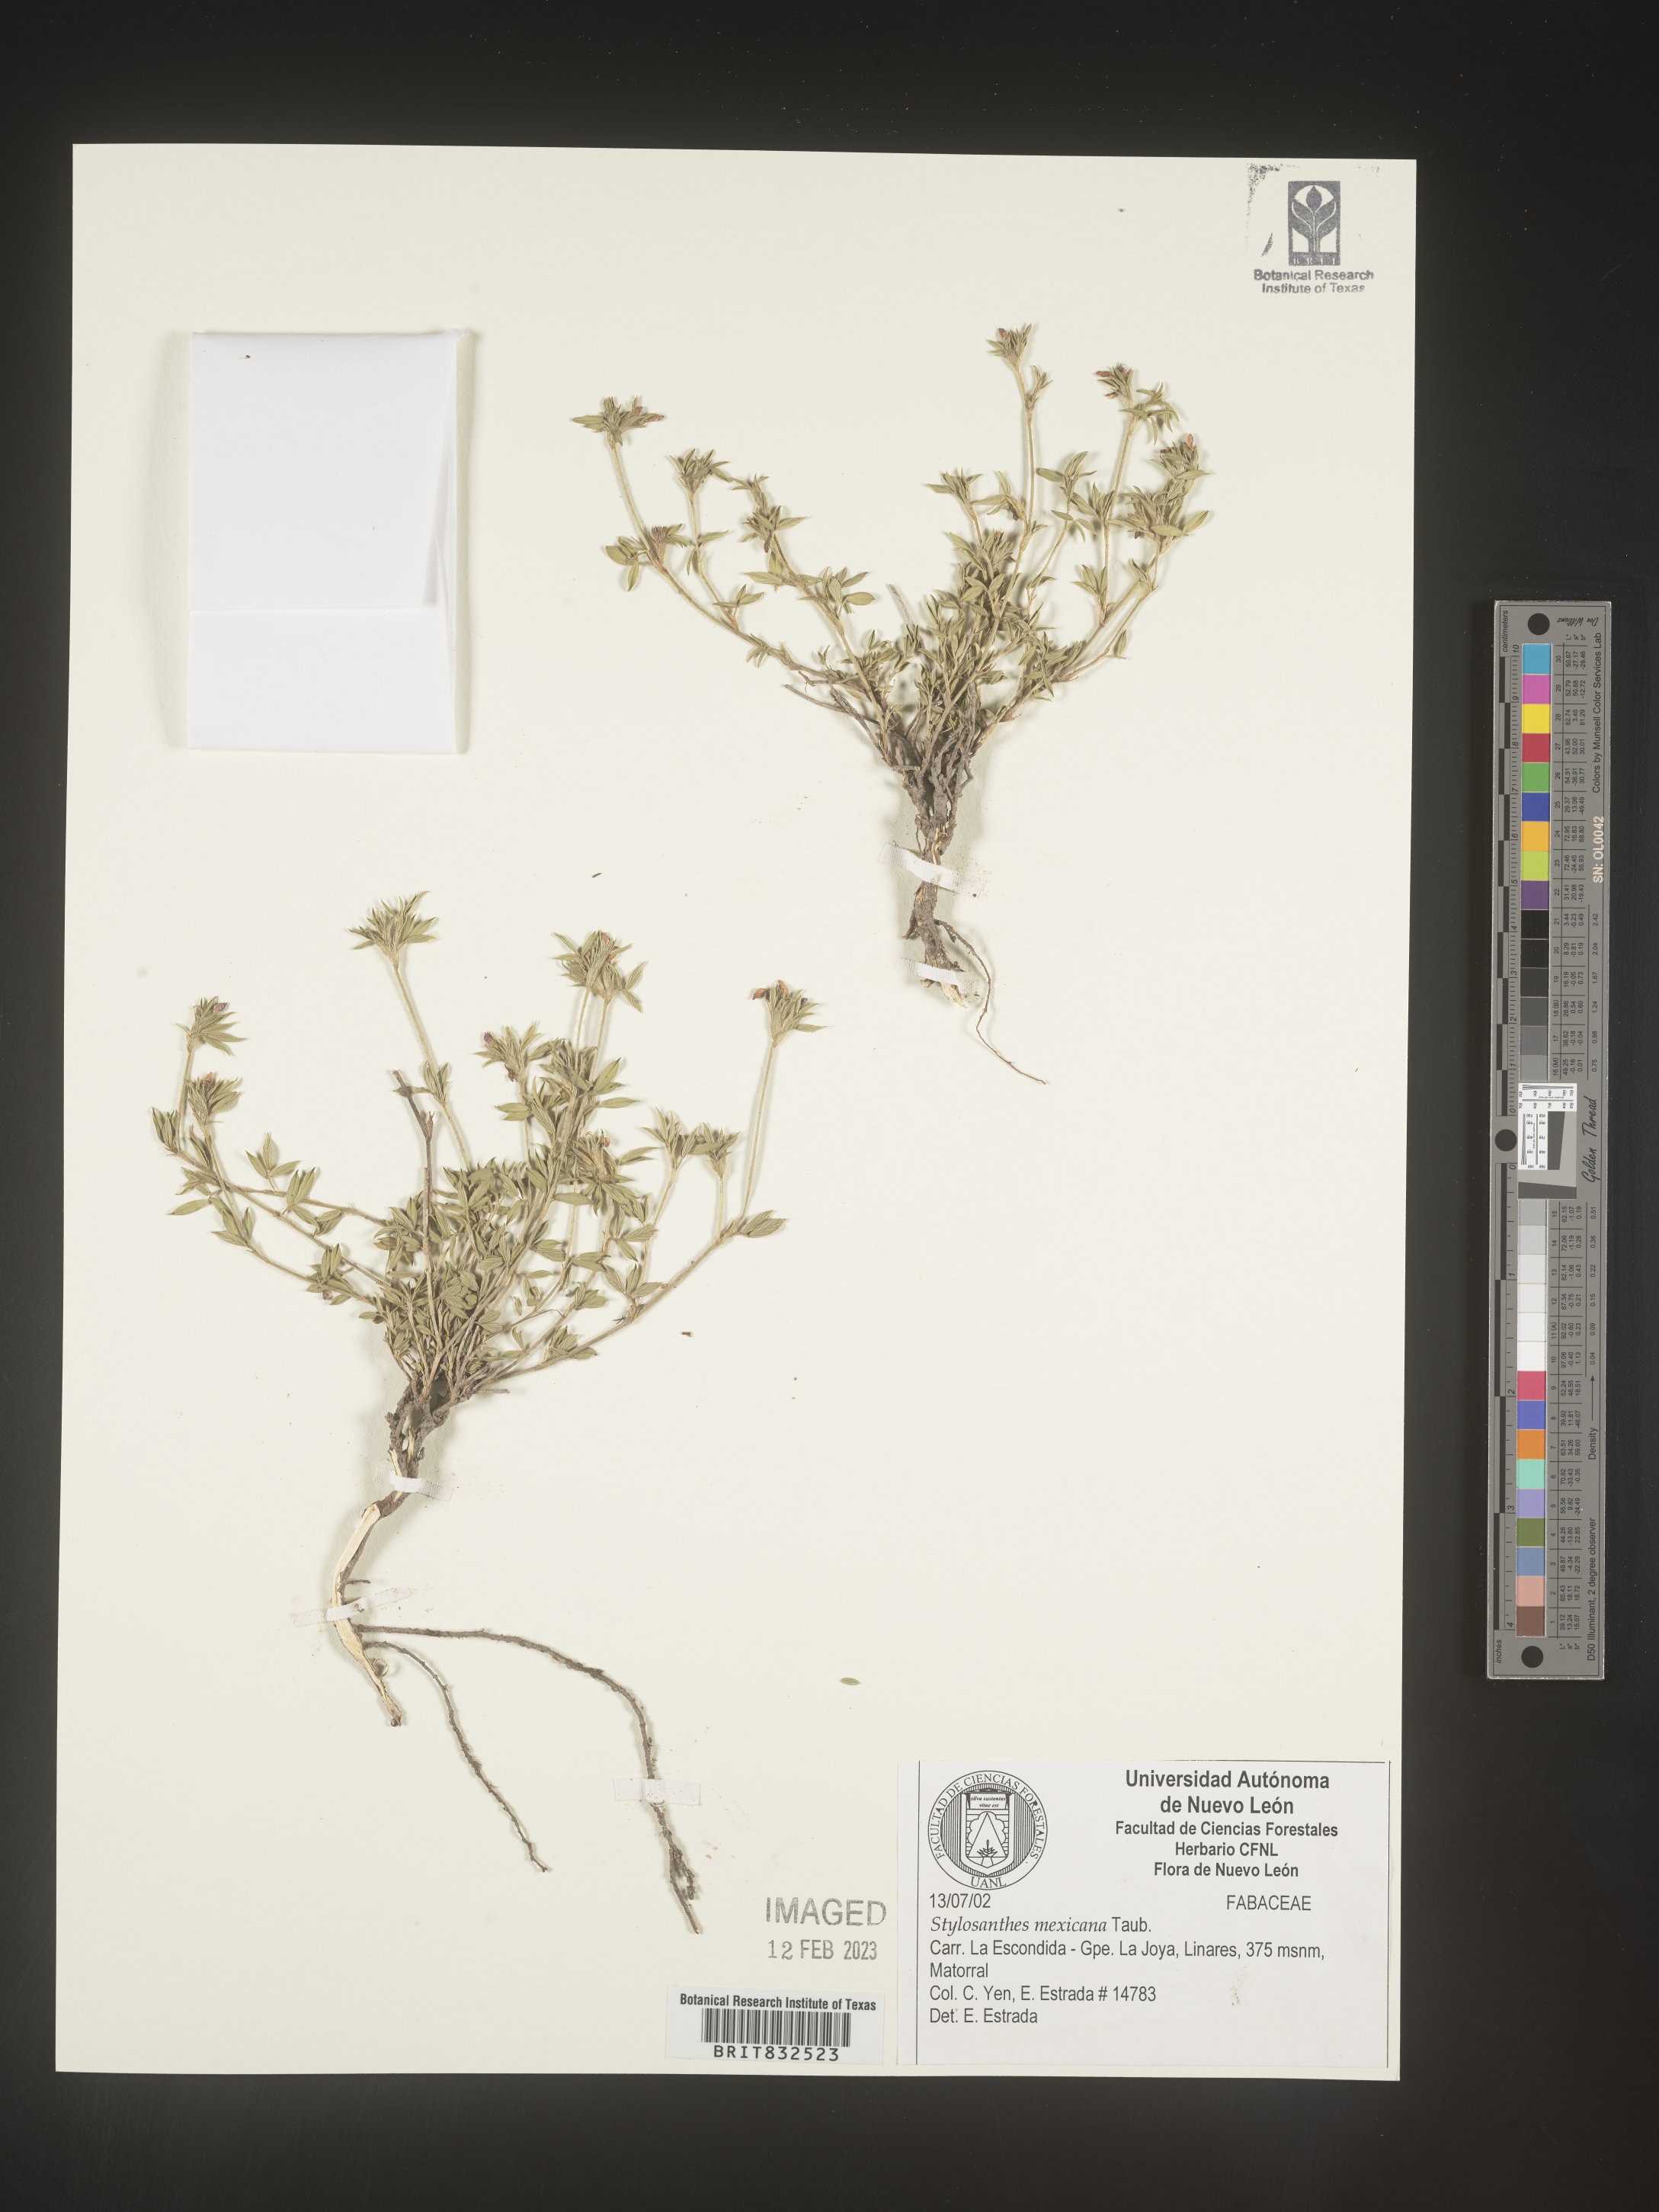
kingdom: Plantae
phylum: Tracheophyta
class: Magnoliopsida
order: Fabales
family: Fabaceae
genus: Stylosanthes
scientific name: Stylosanthes
